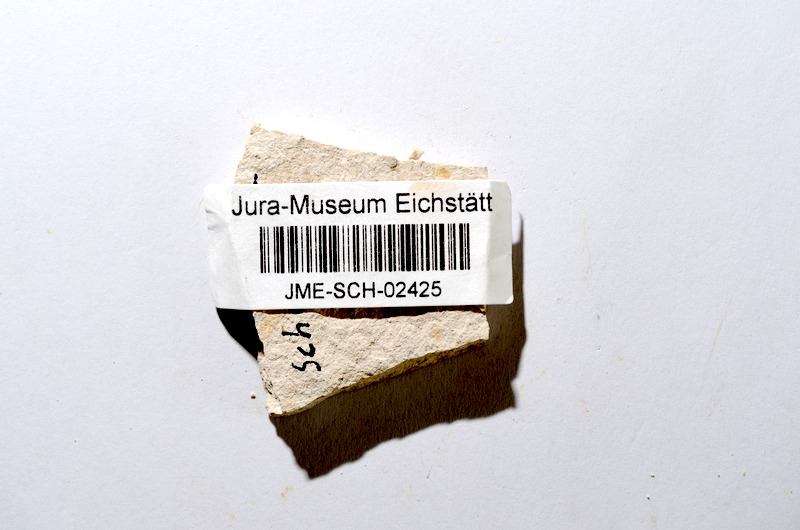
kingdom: Animalia
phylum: Chordata
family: Ascalaboidae
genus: Tharsis
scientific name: Tharsis dubius
